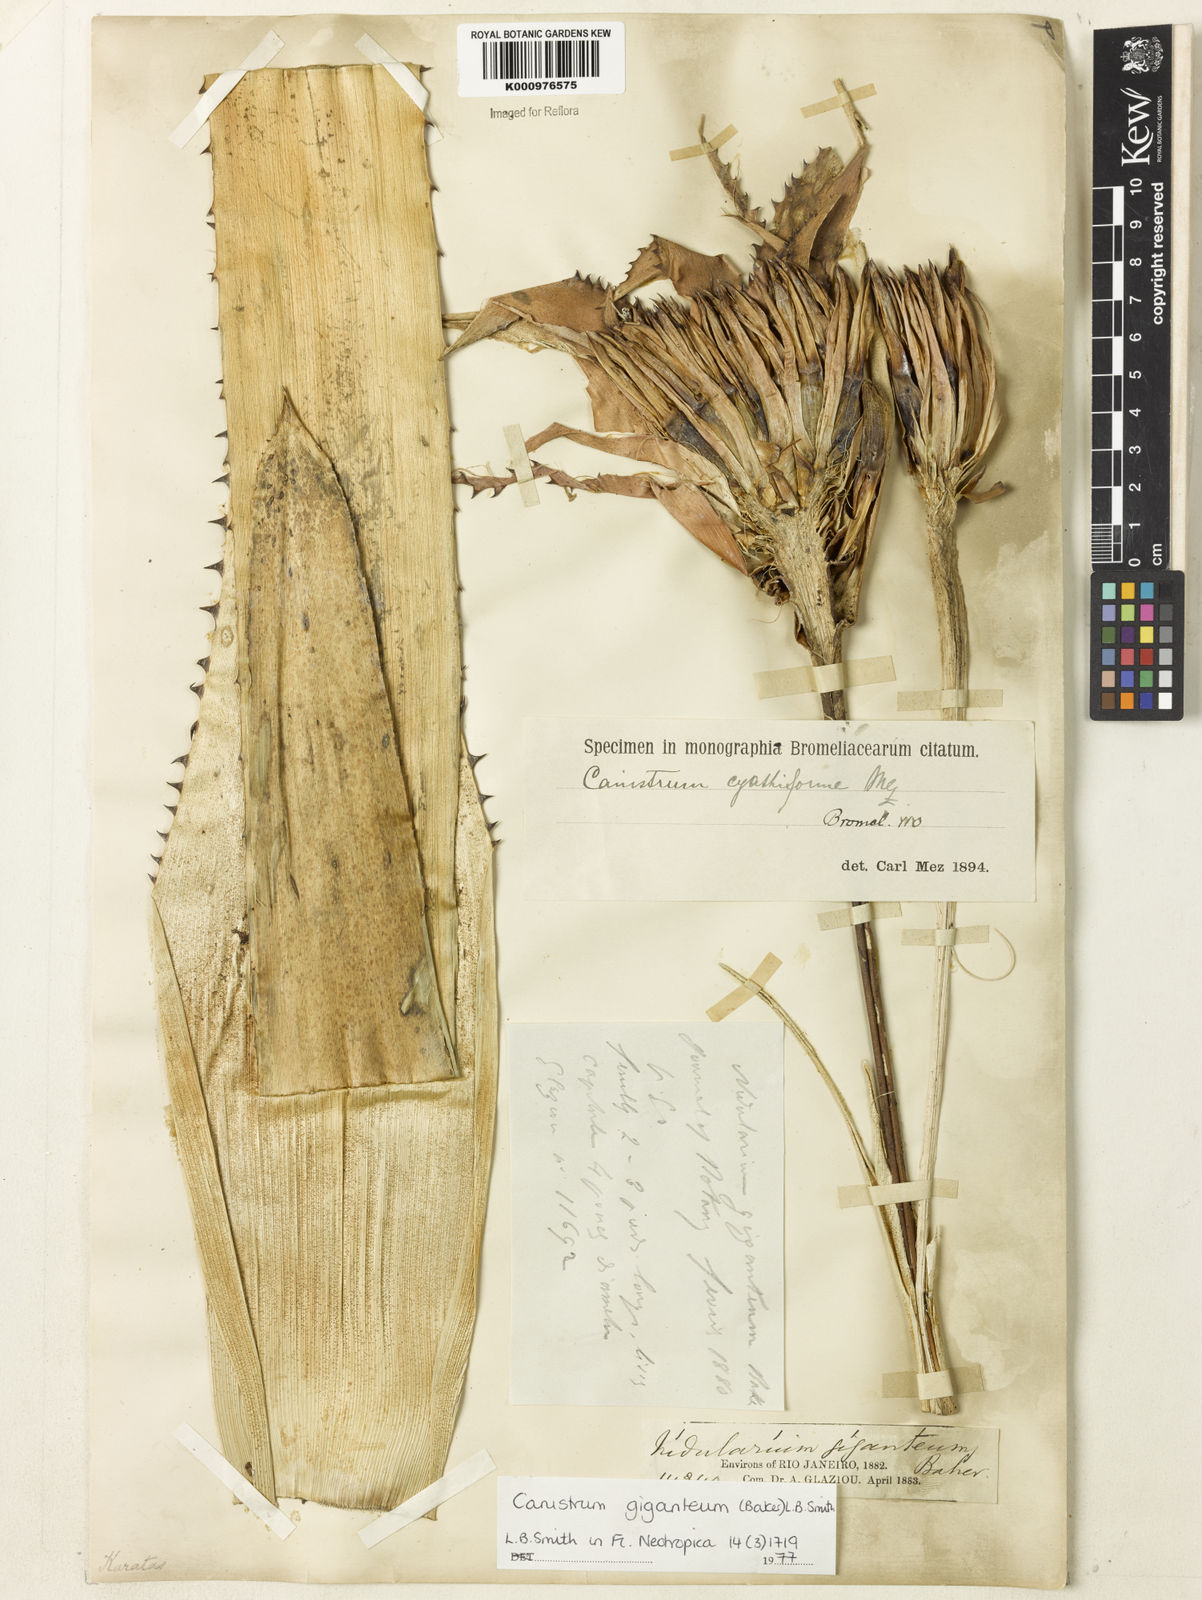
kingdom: Plantae
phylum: Tracheophyta
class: Liliopsida
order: Poales
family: Bromeliaceae
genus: Wittrockia
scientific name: Wittrockia gigantea
